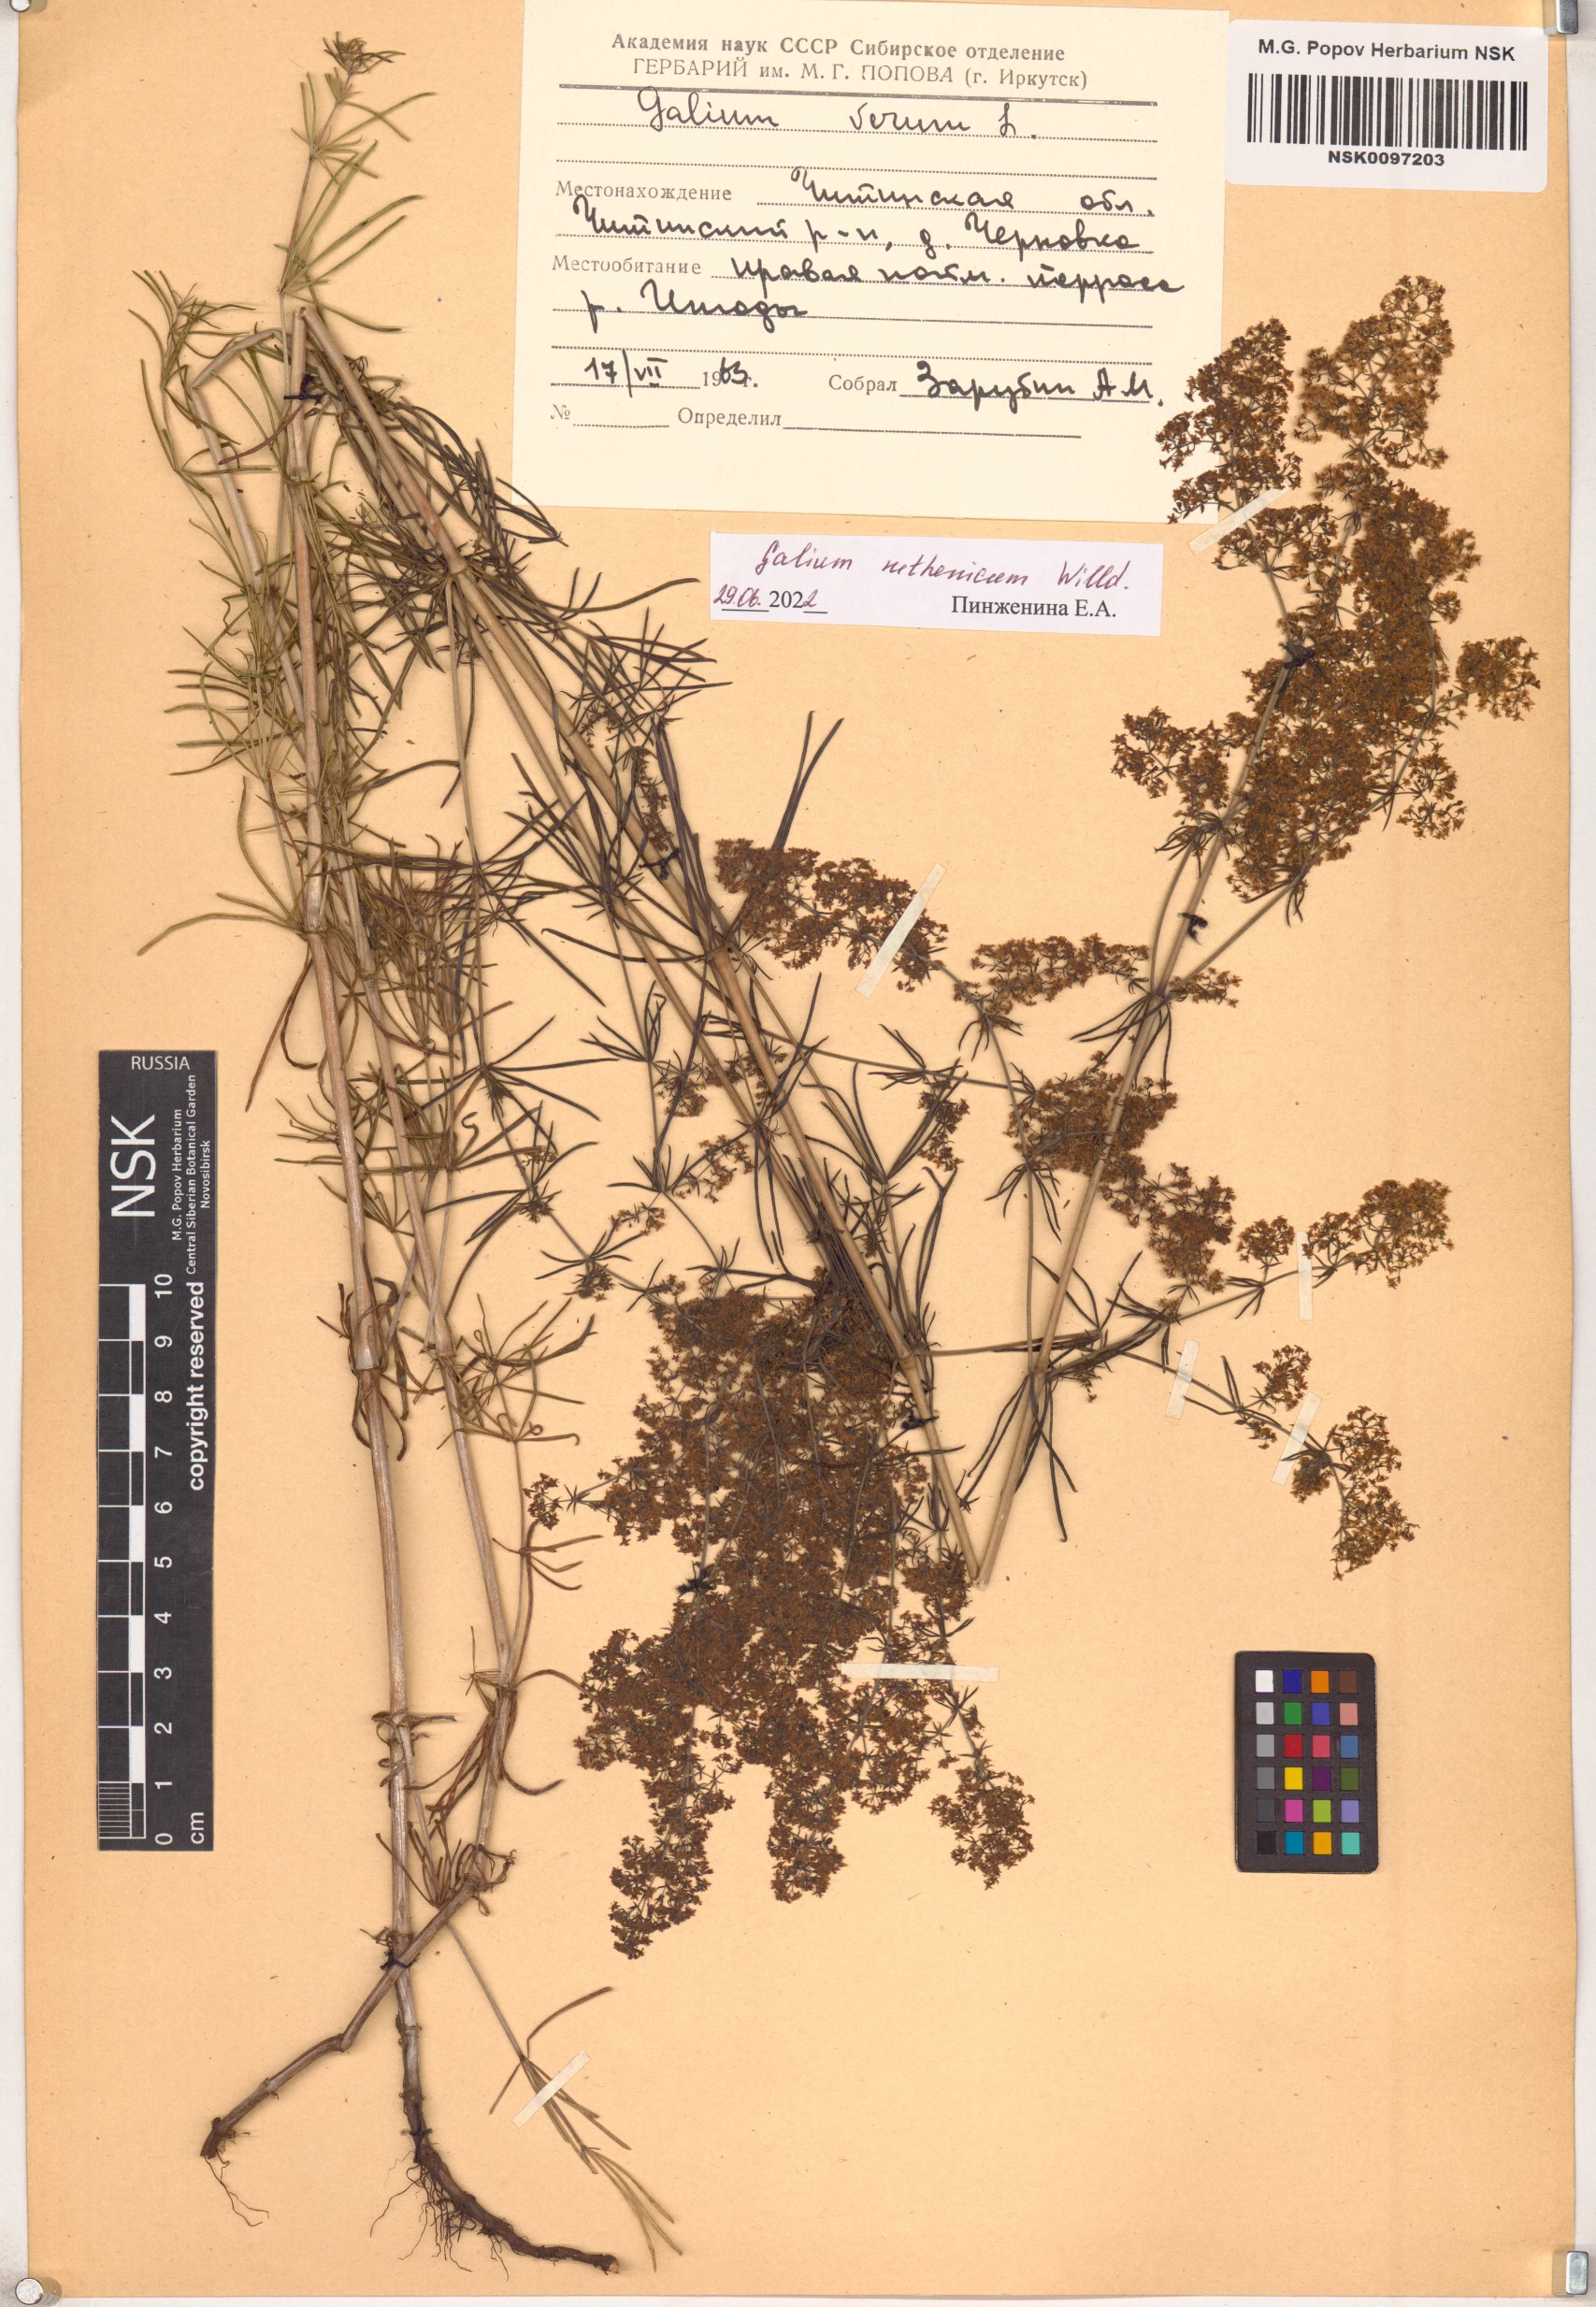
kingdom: Plantae
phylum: Tracheophyta
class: Magnoliopsida
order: Gentianales
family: Rubiaceae
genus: Galium
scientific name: Galium verum
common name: Lady's bedstraw
